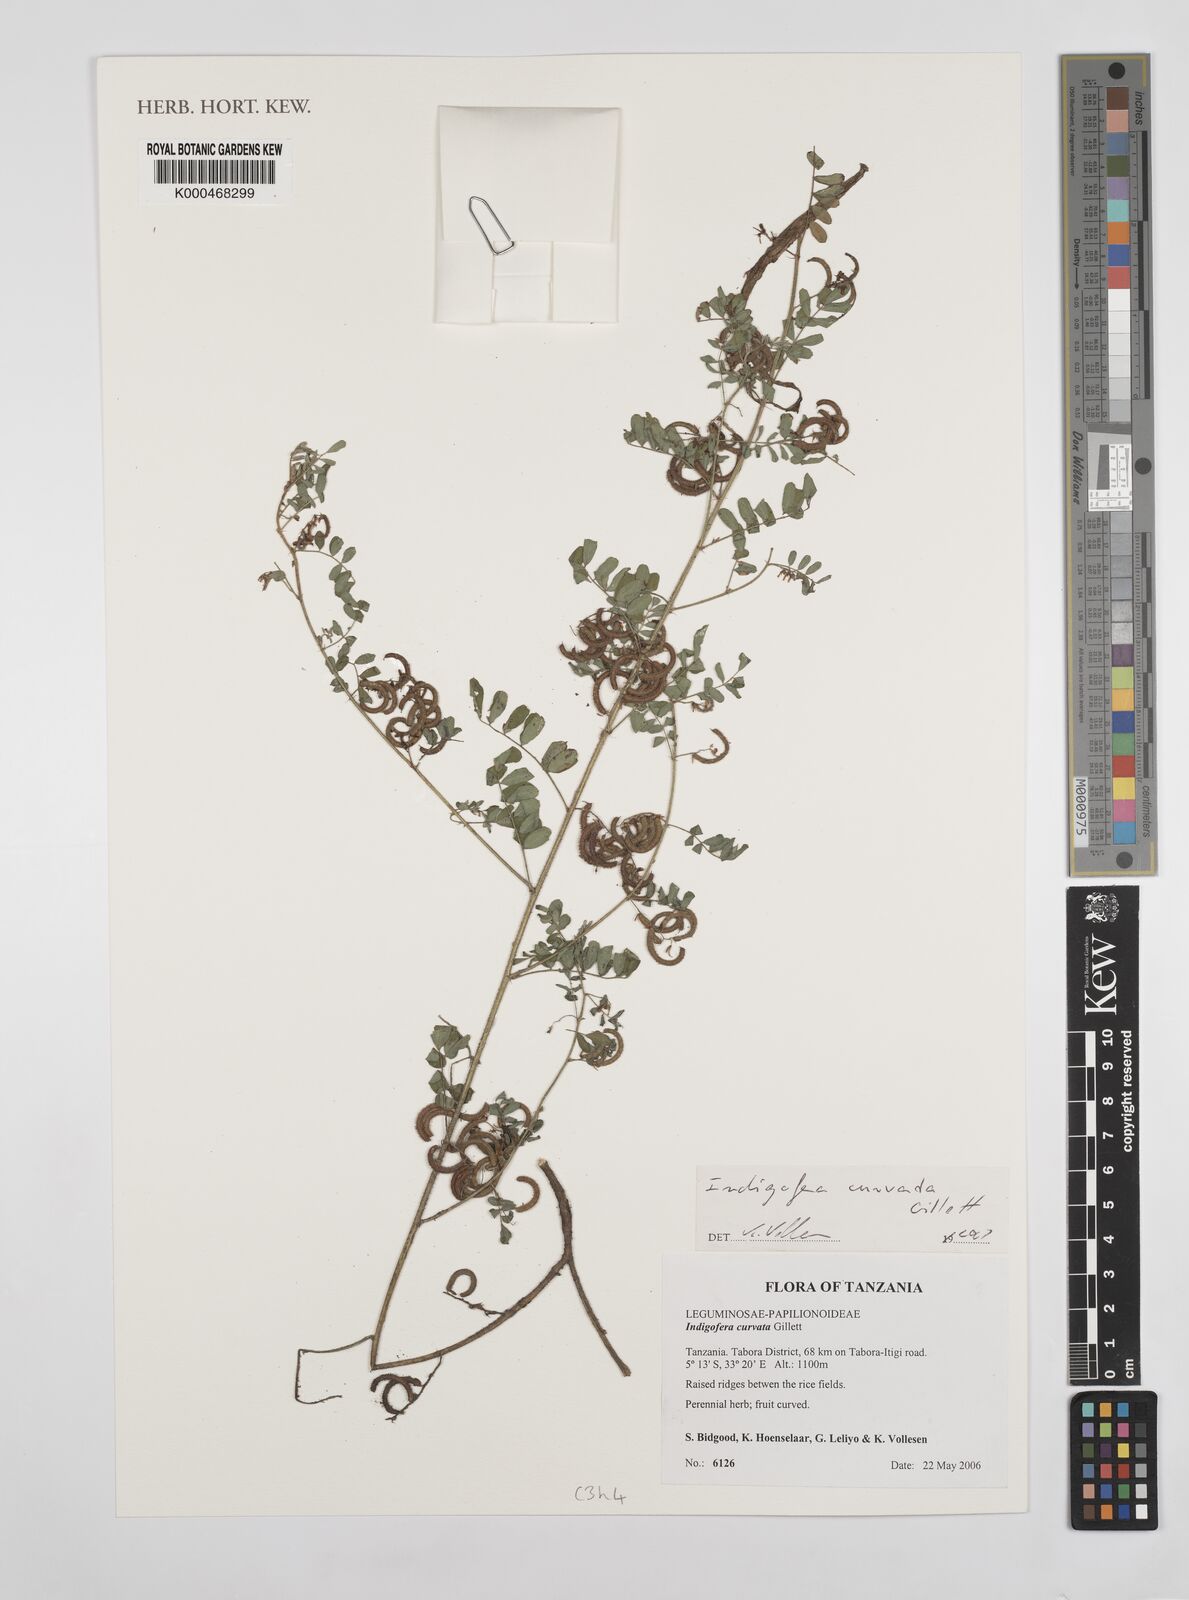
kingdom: Plantae
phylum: Tracheophyta
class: Magnoliopsida
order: Fabales
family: Fabaceae
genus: Indigofera
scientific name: Indigofera curvata
